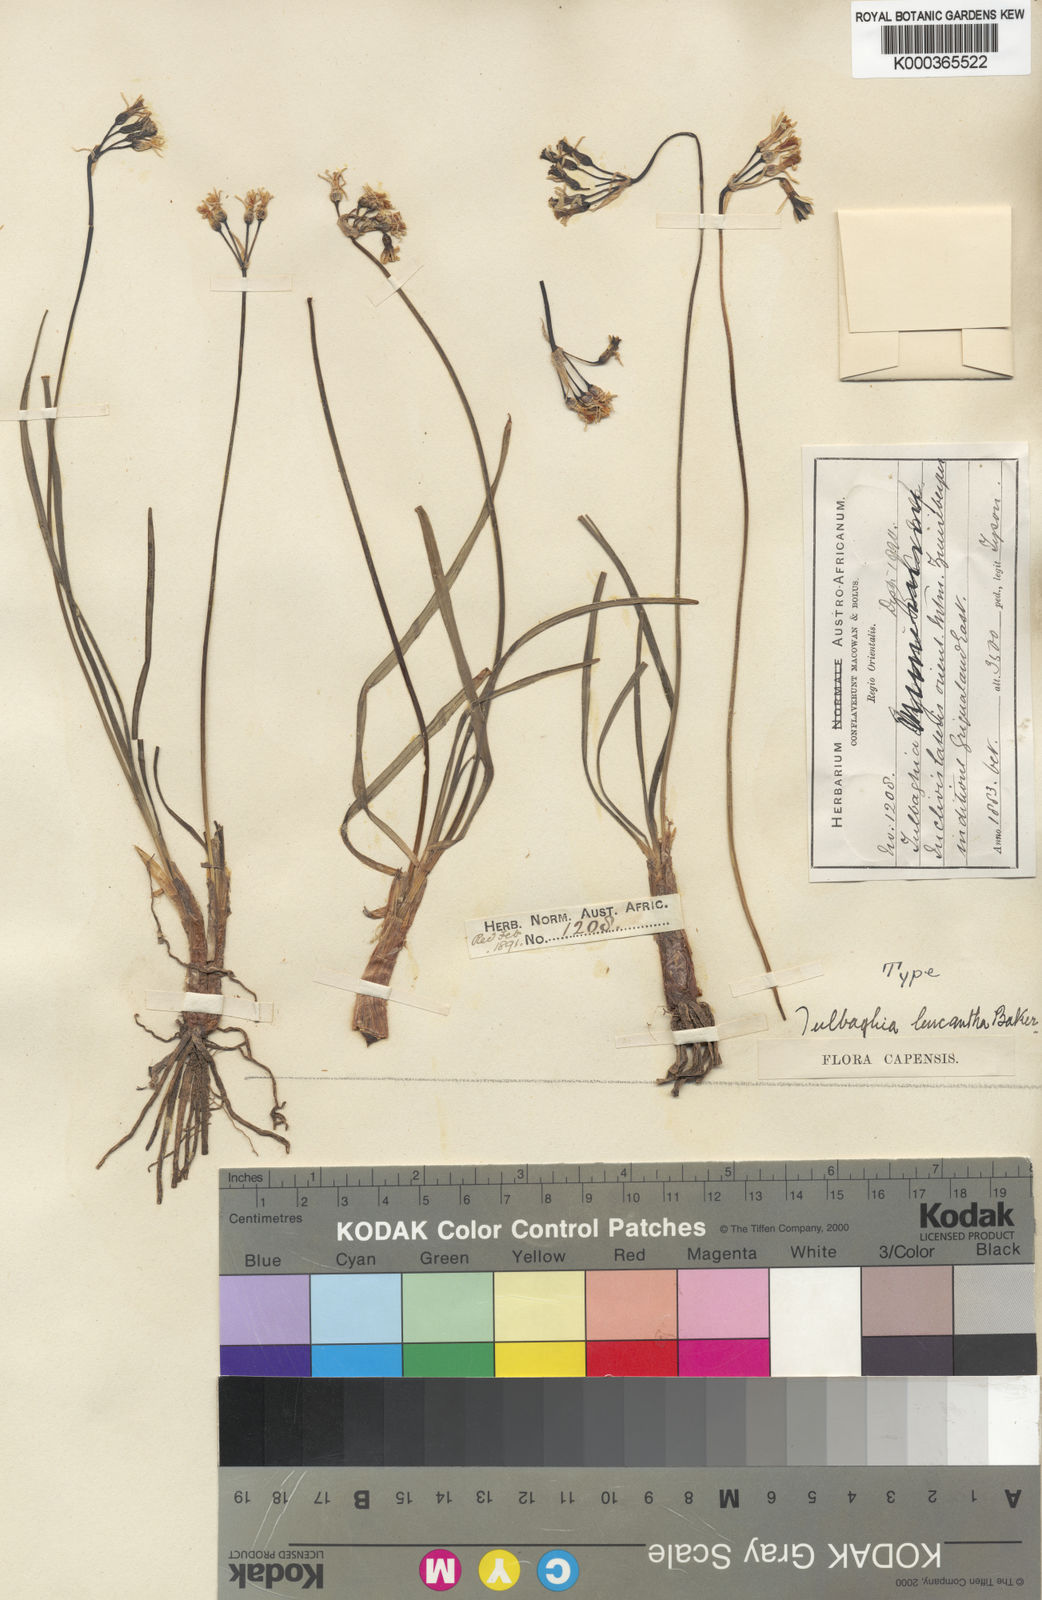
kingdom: Plantae
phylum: Tracheophyta
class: Liliopsida
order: Asparagales
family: Amaryllidaceae
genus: Tulbaghia
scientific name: Tulbaghia leucantha
